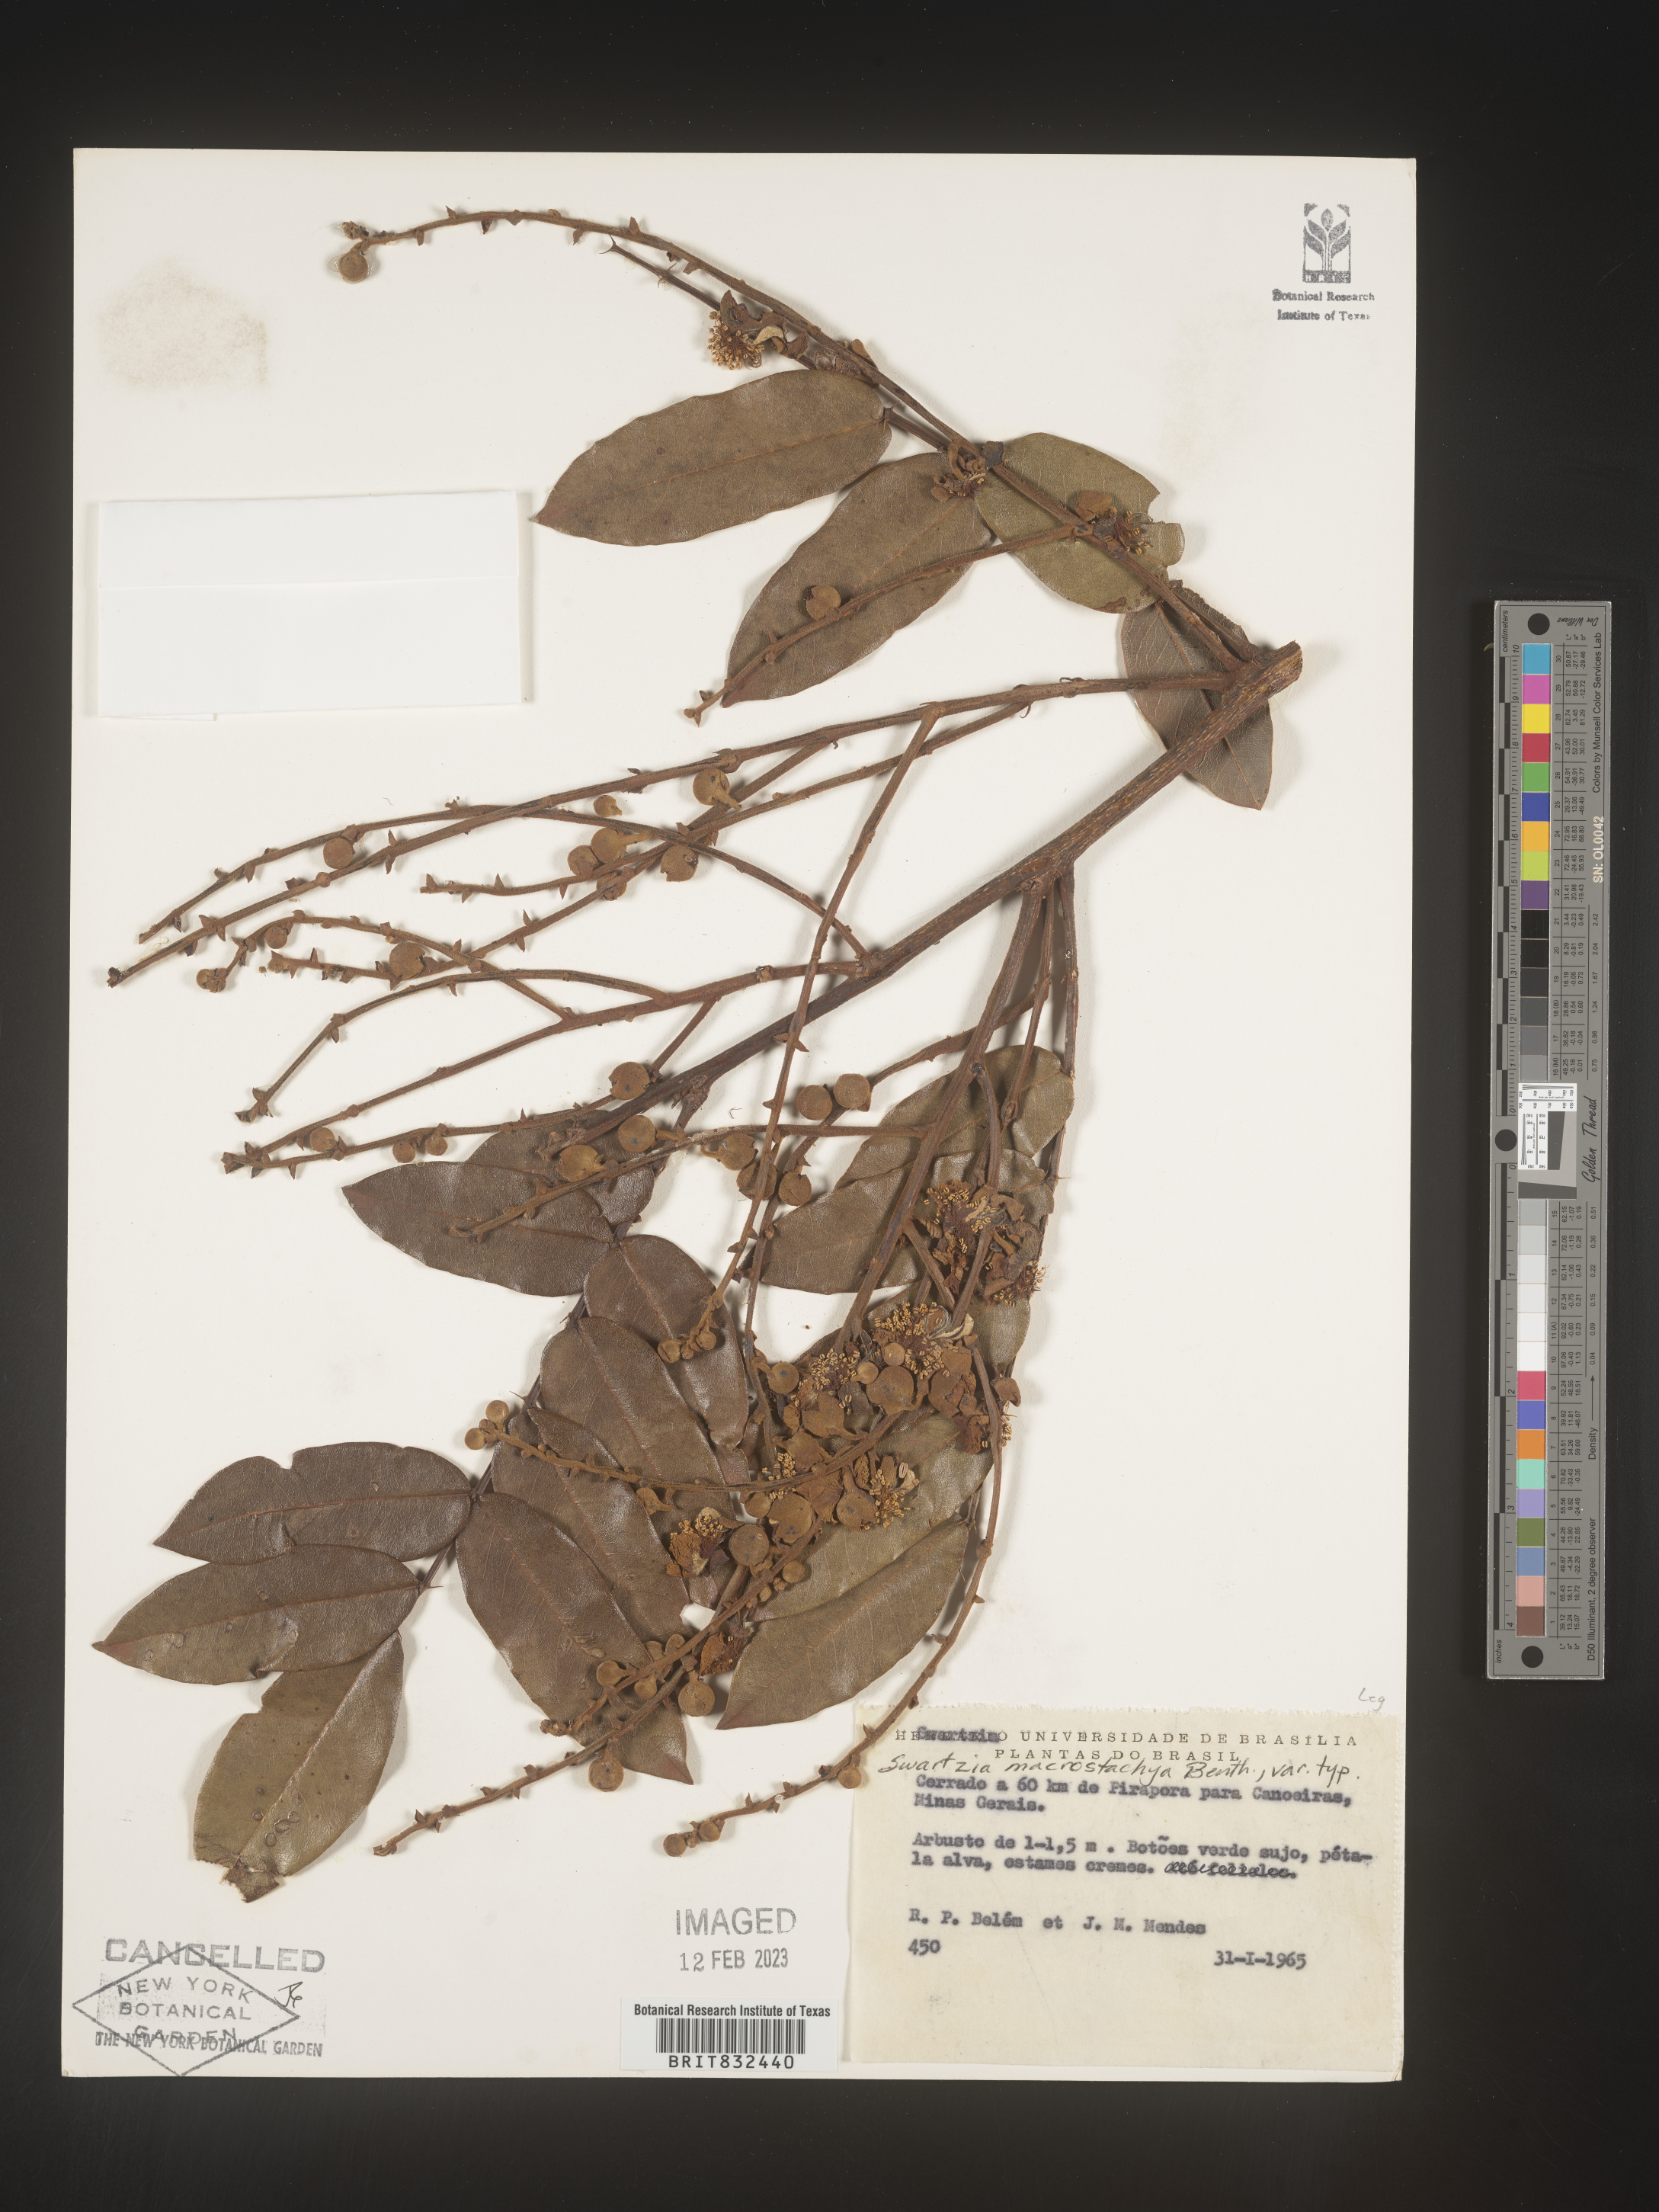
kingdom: Plantae
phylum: Tracheophyta
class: Magnoliopsida
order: Fabales
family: Fabaceae
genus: Swartzia
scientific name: Swartzia
